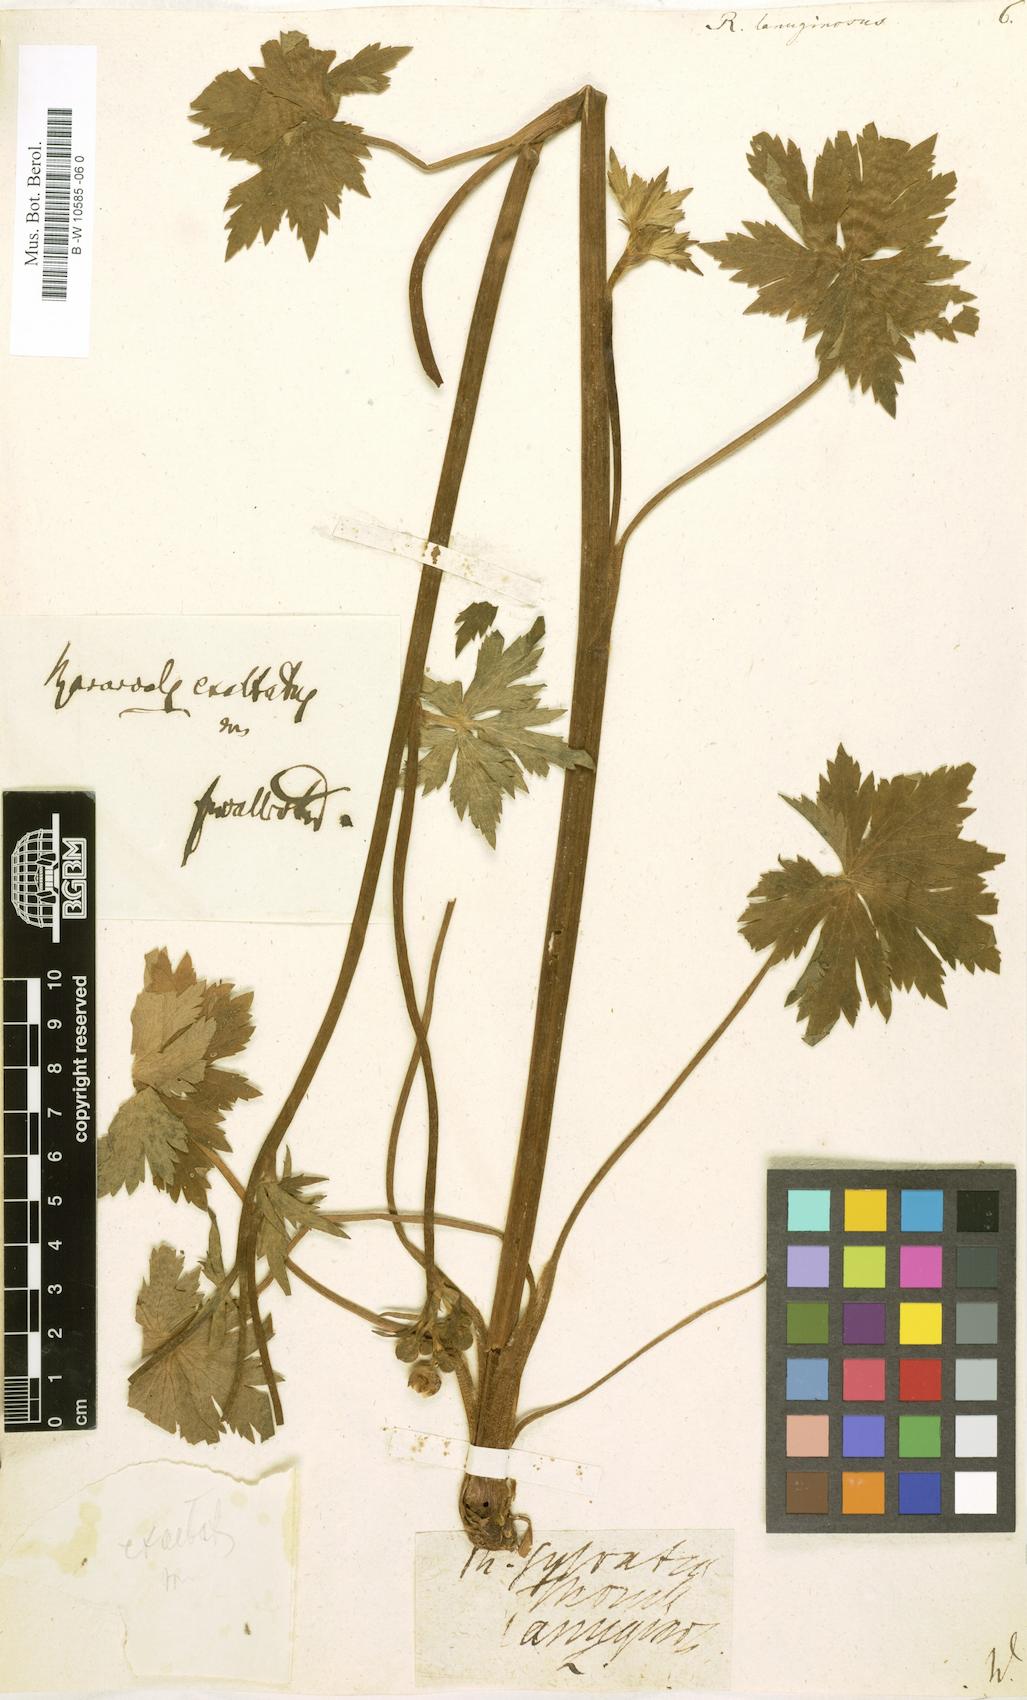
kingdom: Plantae
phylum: Tracheophyta
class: Magnoliopsida
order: Ranunculales
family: Ranunculaceae
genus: Ranunculus
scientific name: Ranunculus lanuginosus
